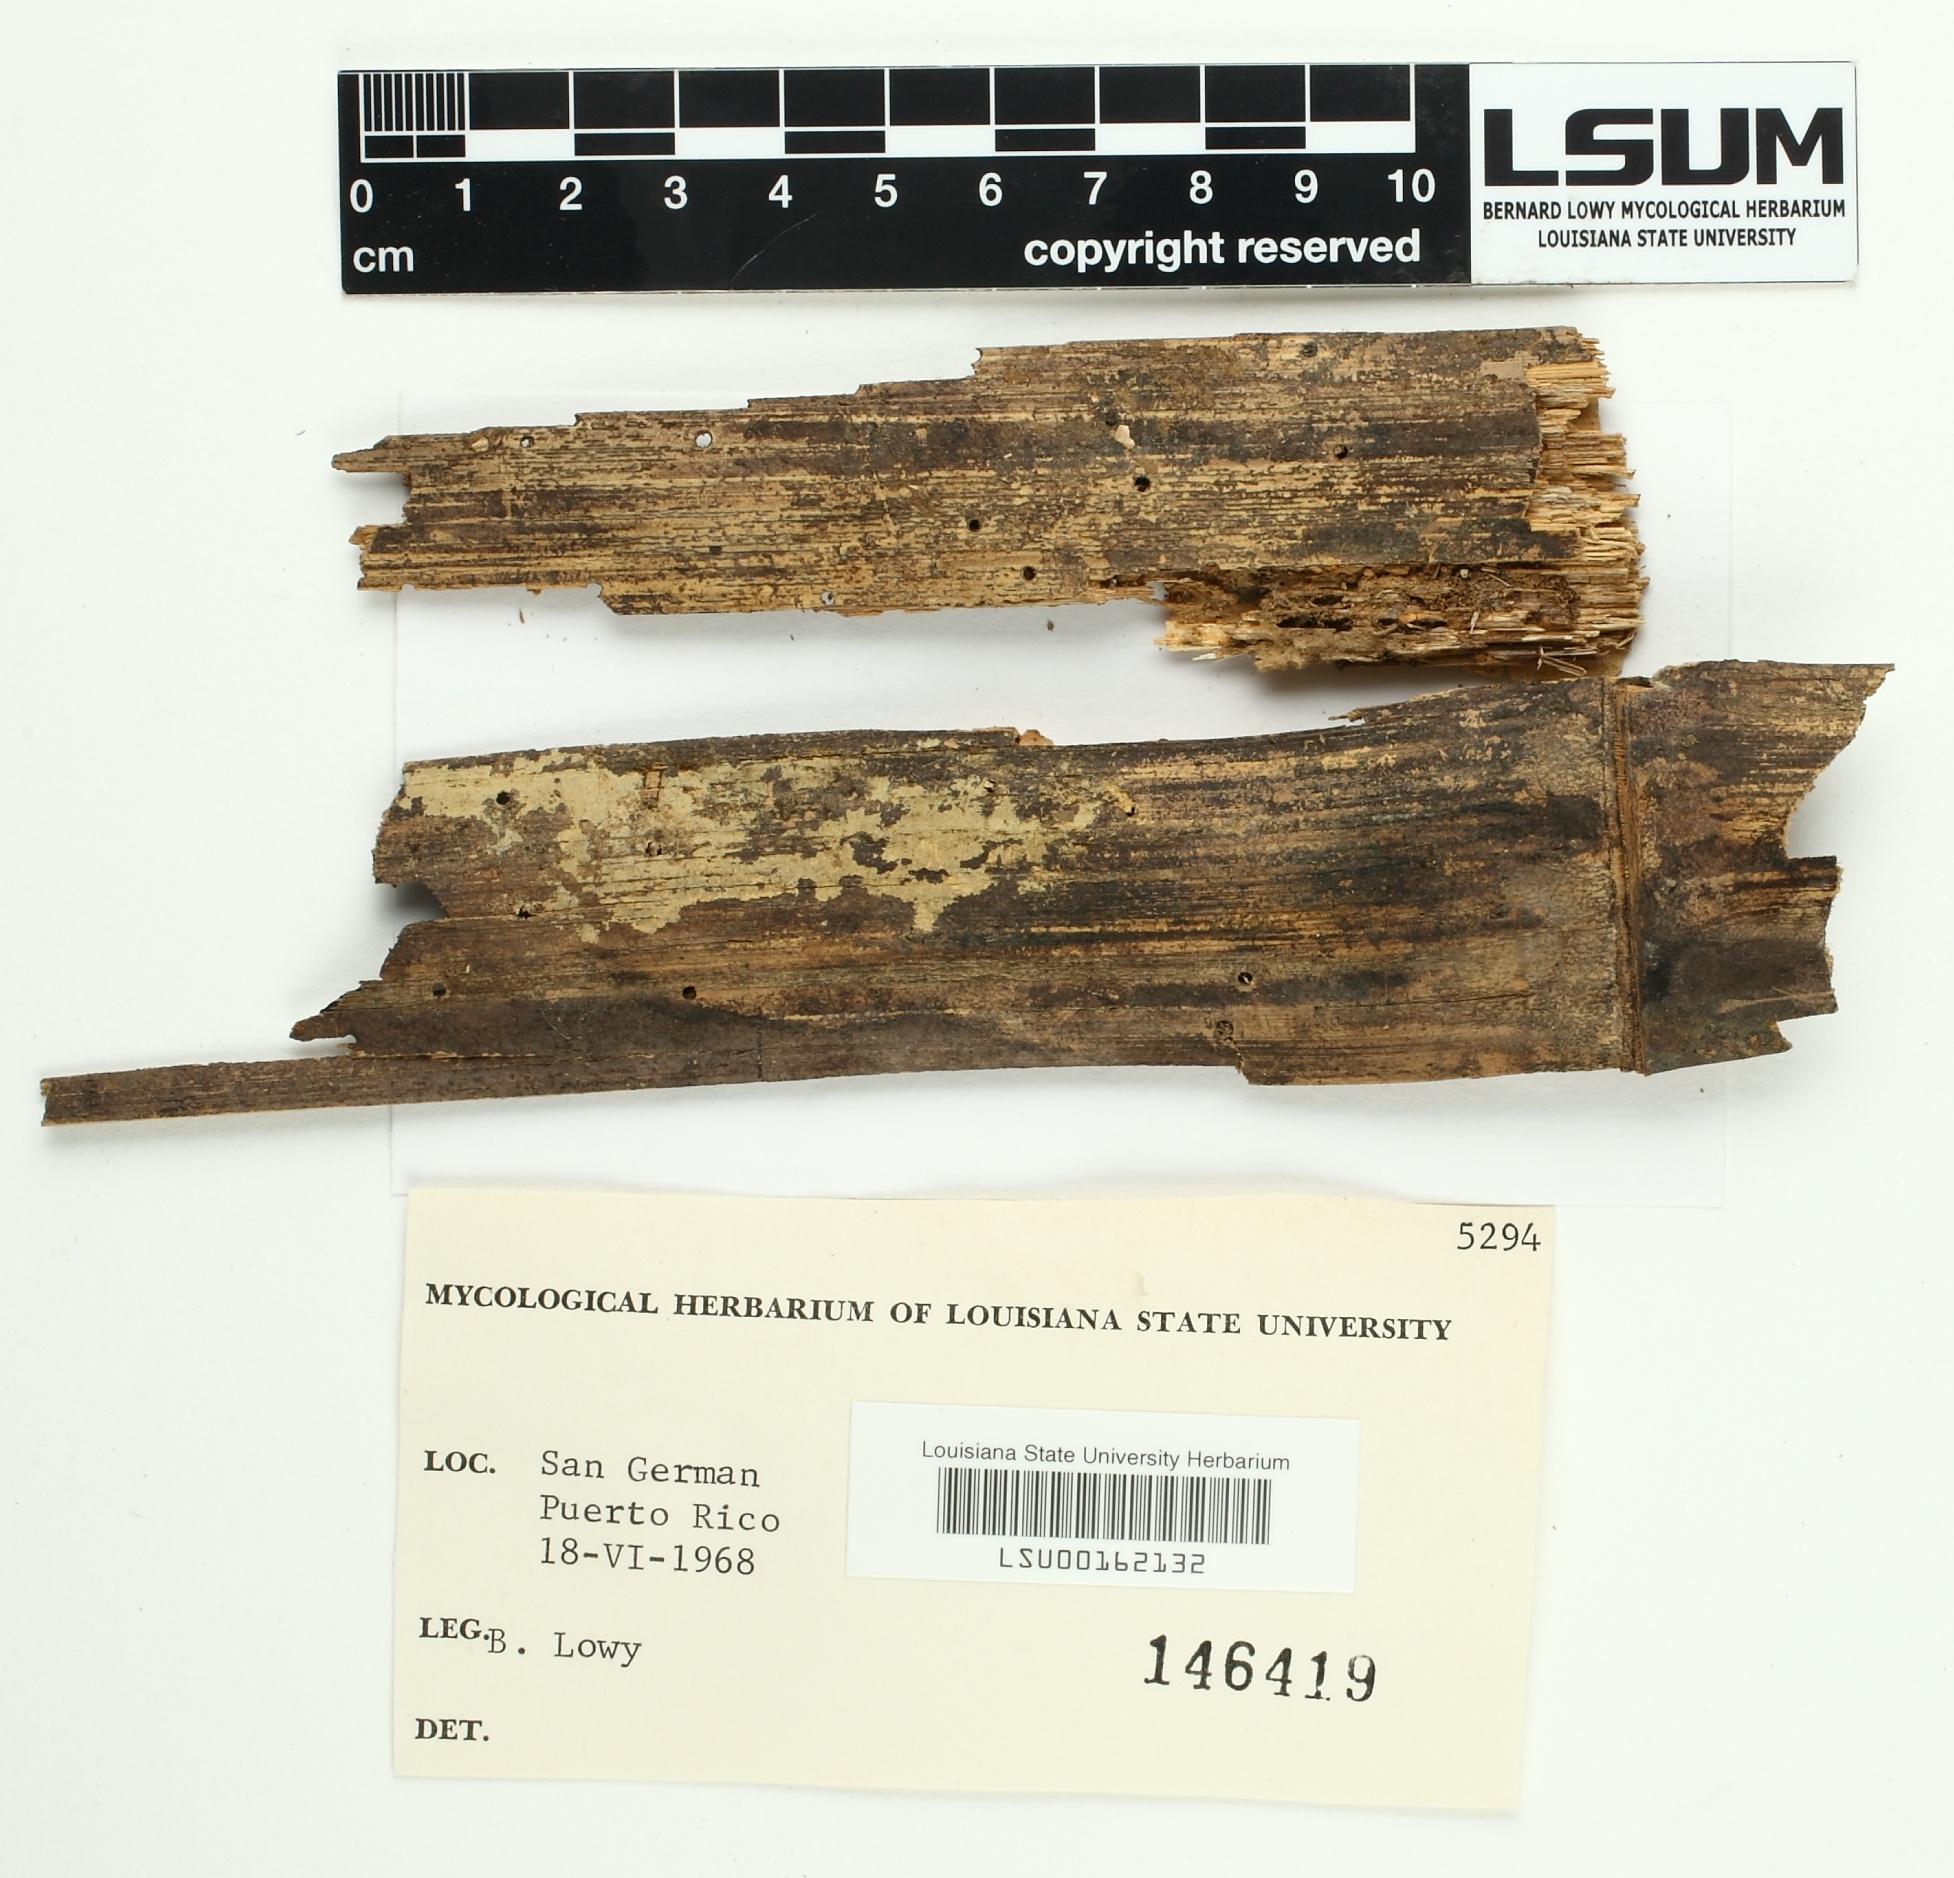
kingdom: Fungi
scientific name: Fungi
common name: Fungi
